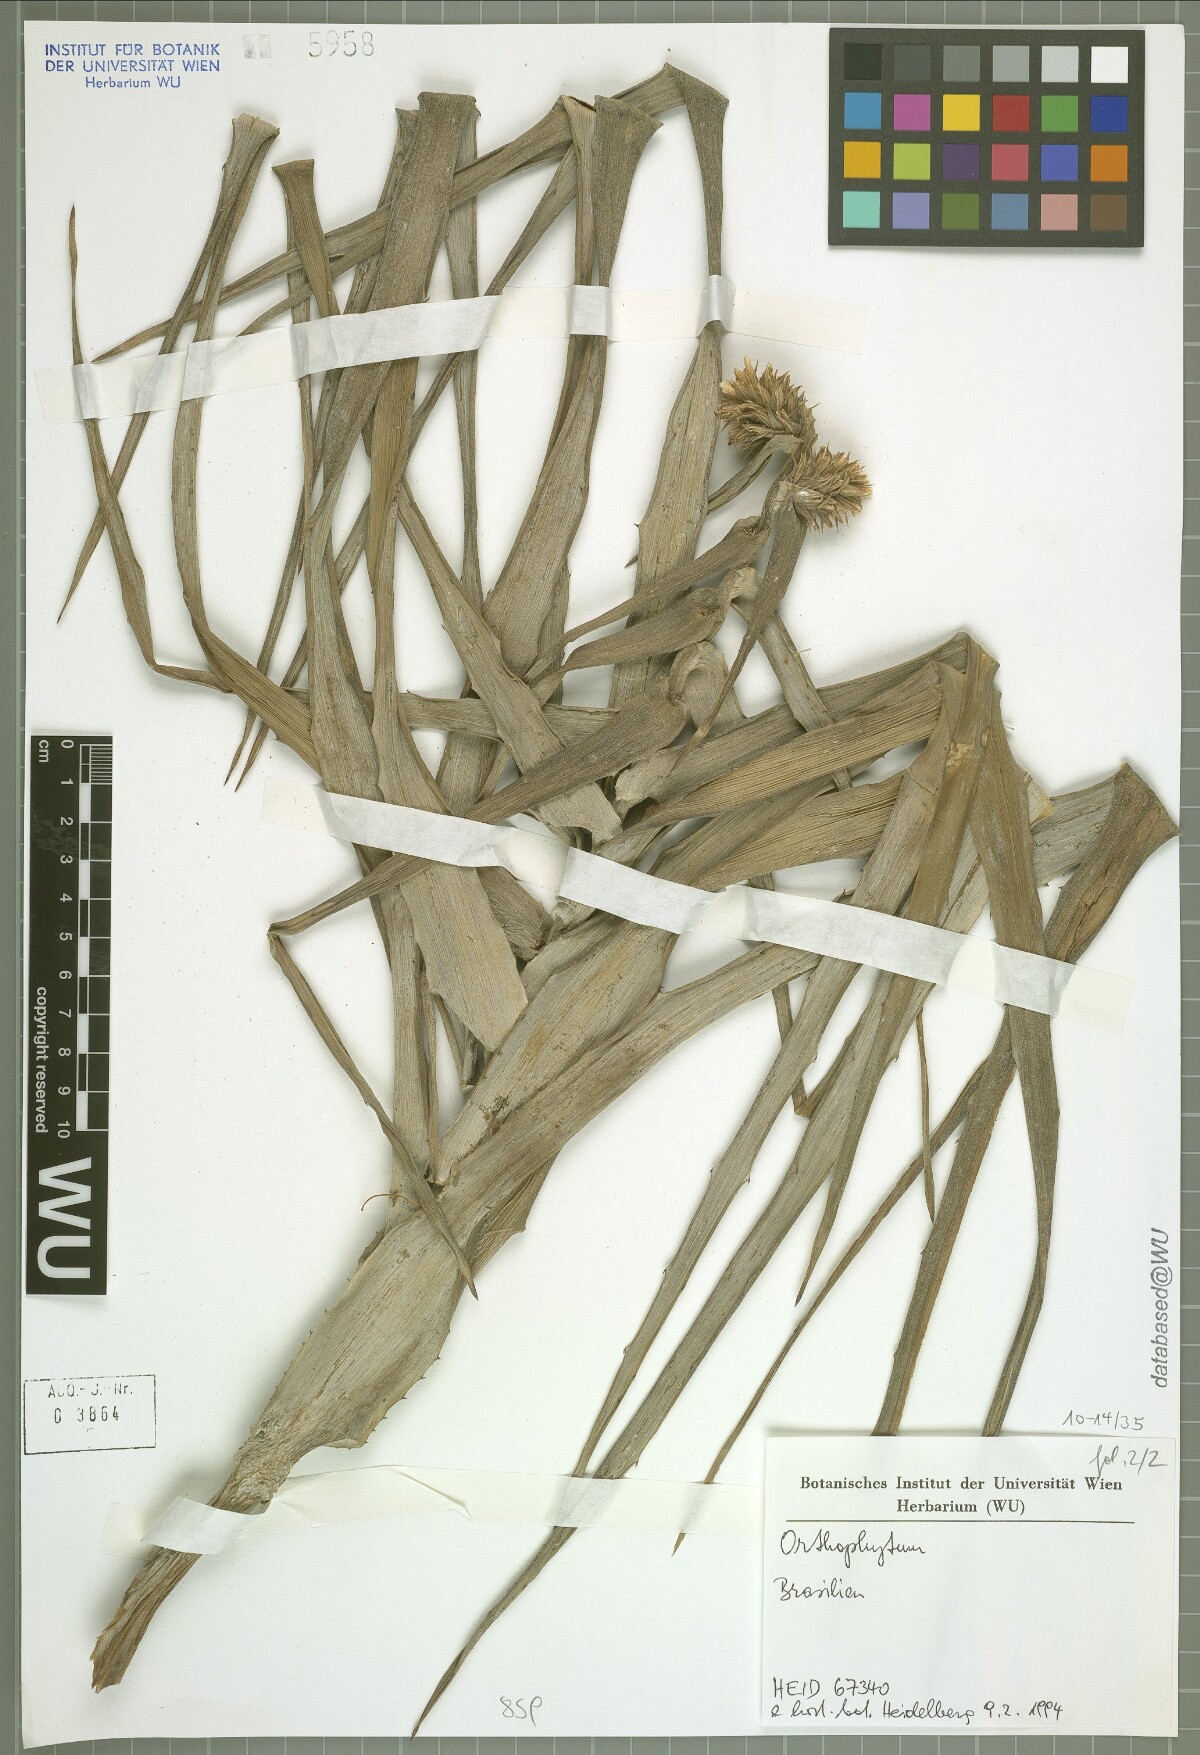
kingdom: Plantae
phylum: Tracheophyta
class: Liliopsida
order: Poales
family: Bromeliaceae
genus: Orthophytum
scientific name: Orthophytum horridum
